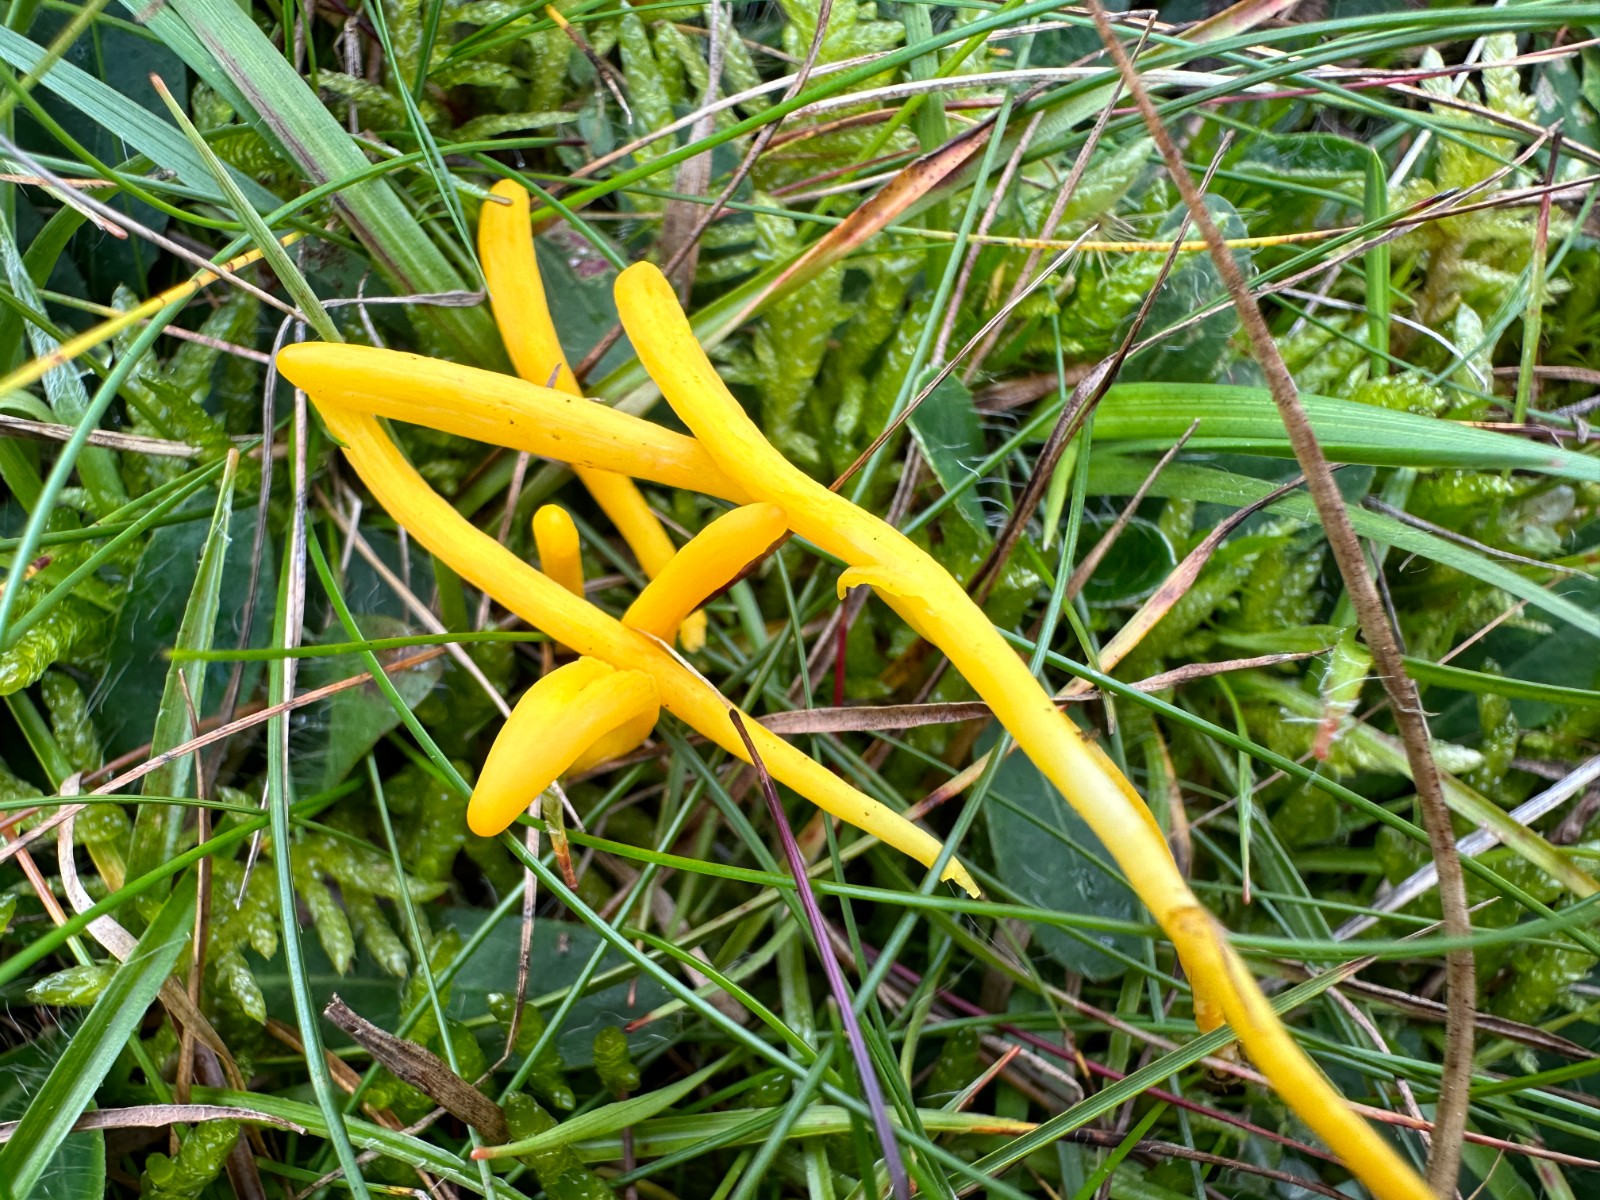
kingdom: Fungi
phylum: Basidiomycota
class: Agaricomycetes
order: Agaricales
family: Clavariaceae
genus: Clavulinopsis
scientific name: Clavulinopsis helvola
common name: orangegul køllesvamp
